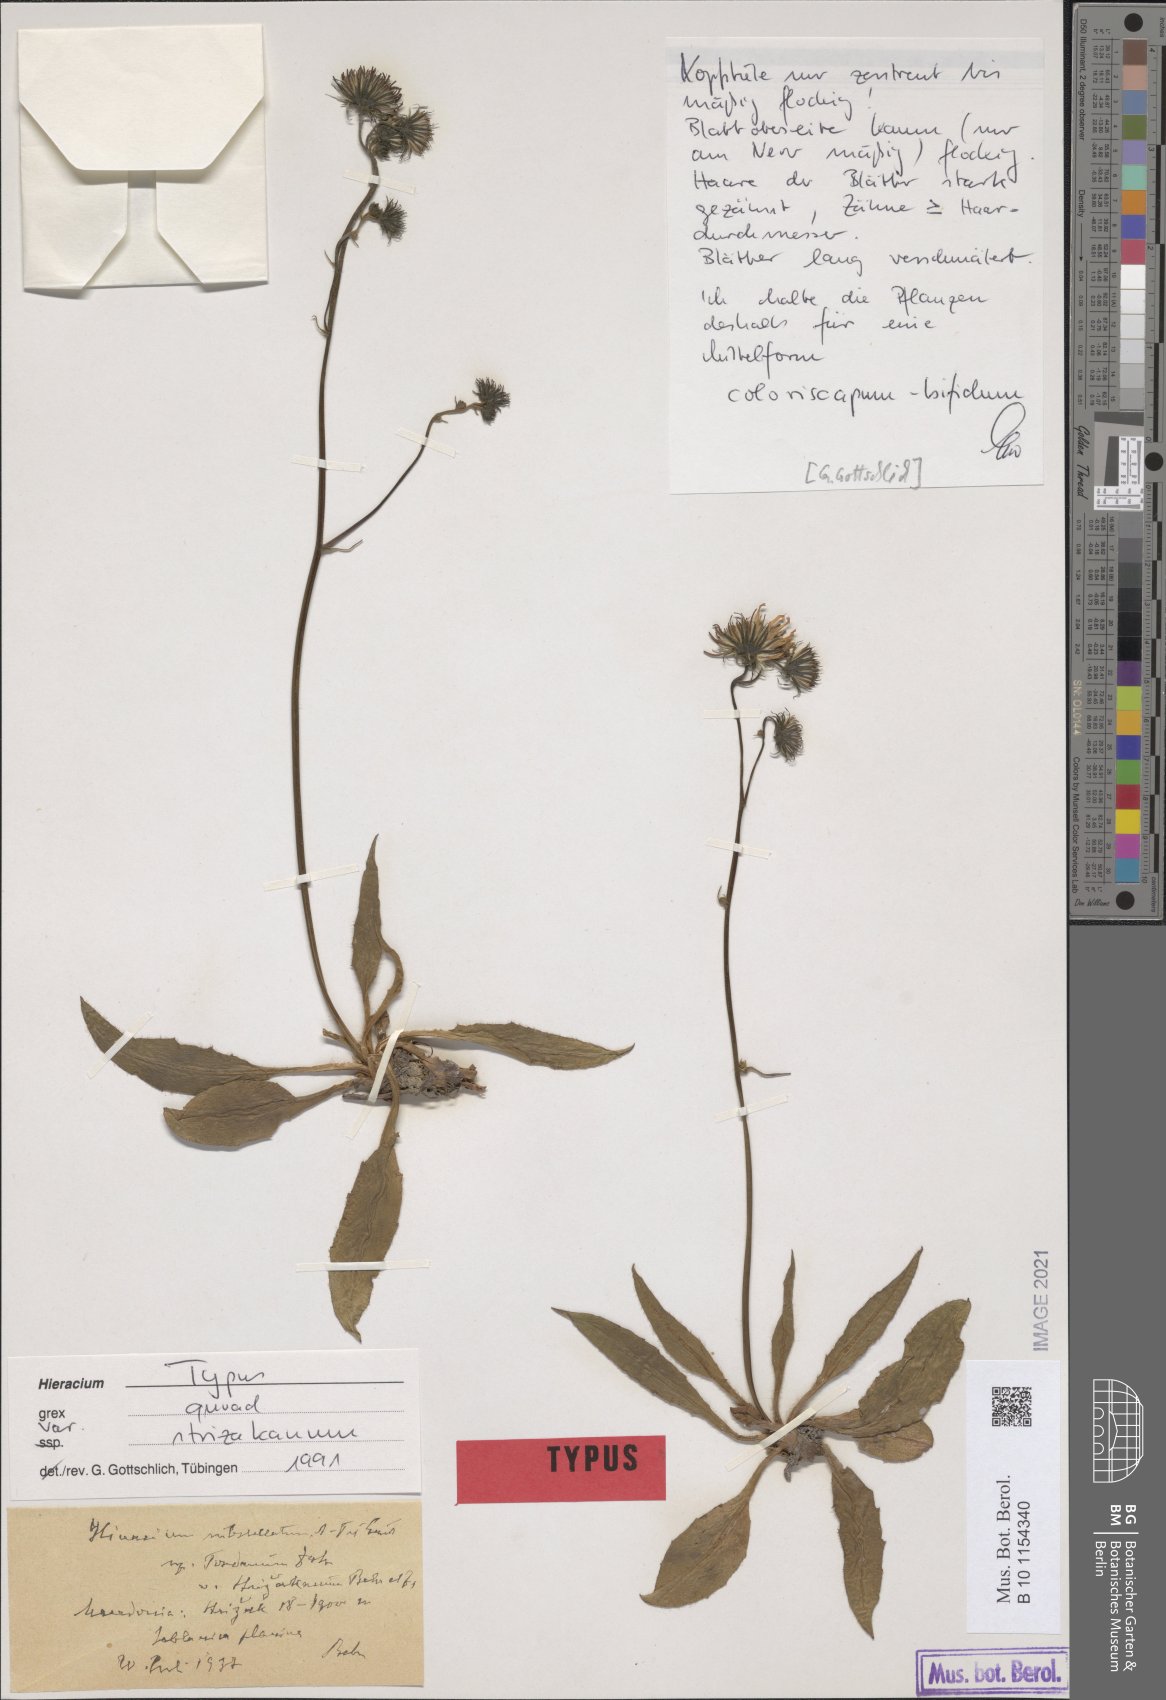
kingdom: Plantae
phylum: Tracheophyta
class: Magnoliopsida
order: Asterales
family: Asteraceae
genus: Hieracium
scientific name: Hieracium substellatum
